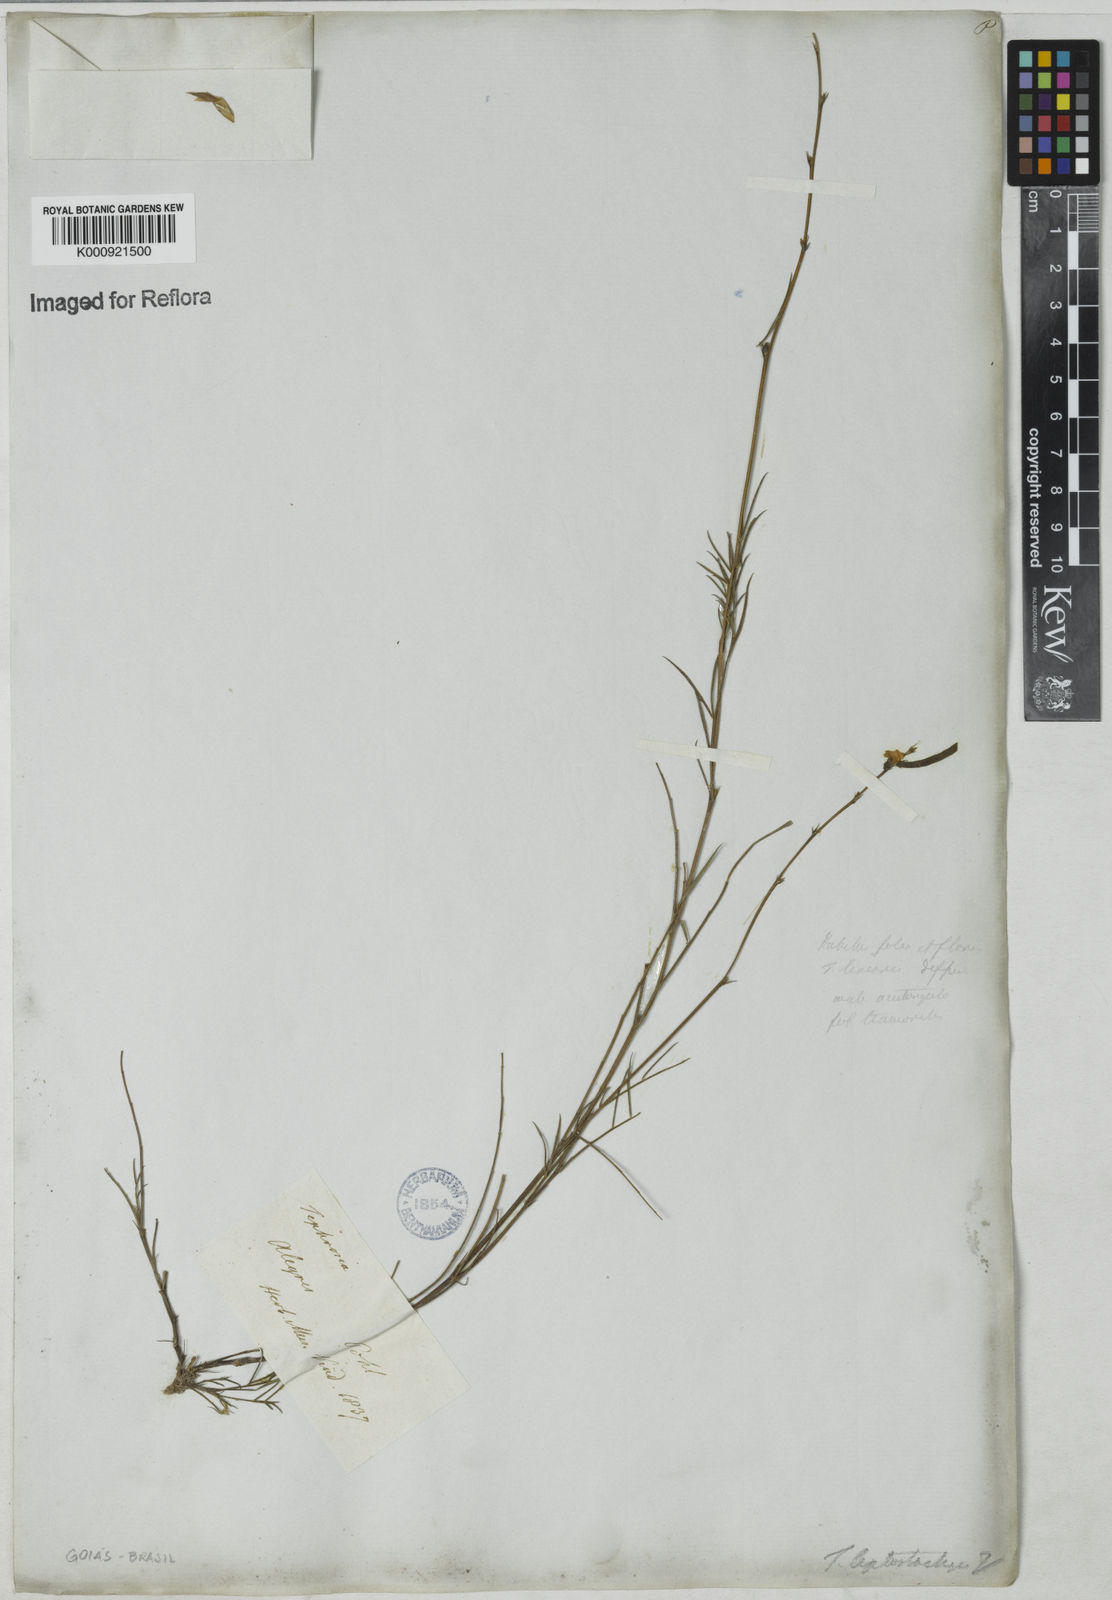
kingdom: Plantae
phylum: Tracheophyta
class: Magnoliopsida
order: Fabales
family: Fabaceae
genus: Tephrosia
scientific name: Tephrosia purpurea
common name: Fishpoison
